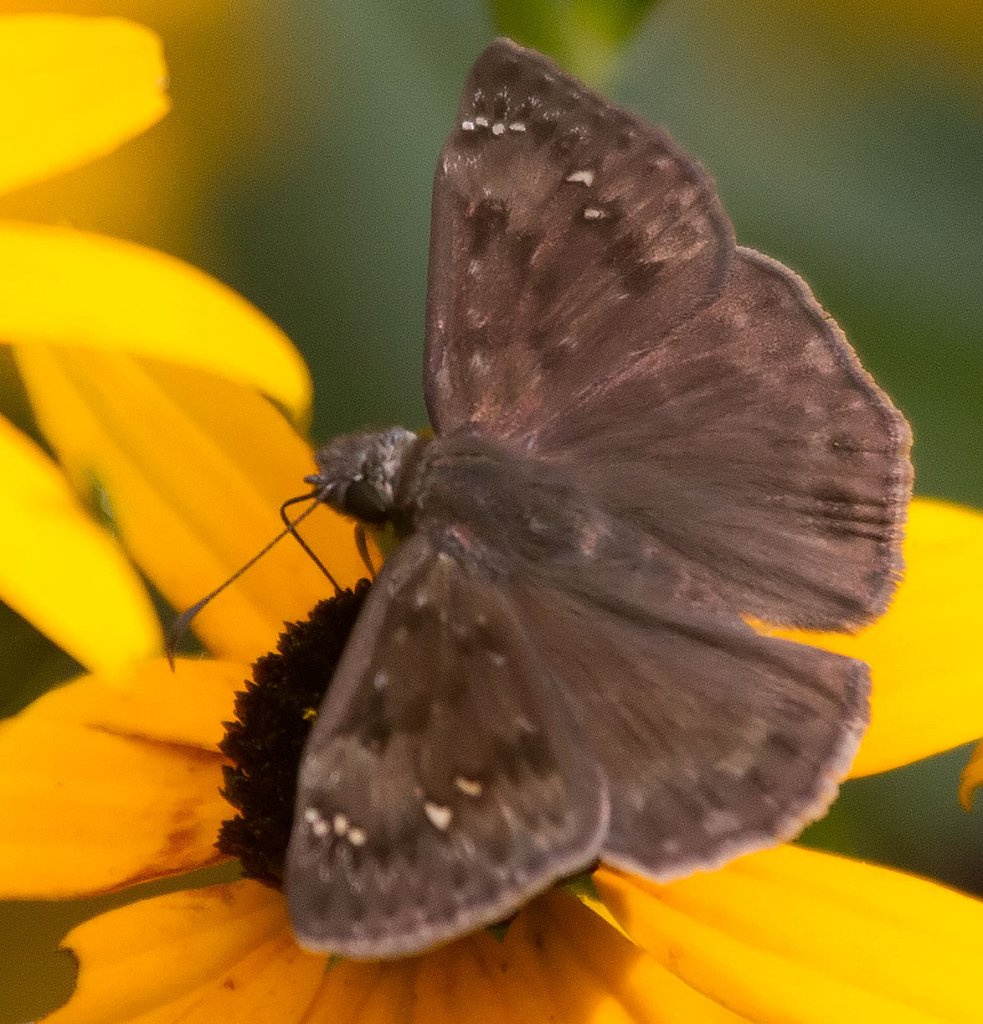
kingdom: Animalia
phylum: Arthropoda
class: Insecta
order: Lepidoptera
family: Hesperiidae
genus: Gesta
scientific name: Gesta
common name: Wild Indigo Duskywing
